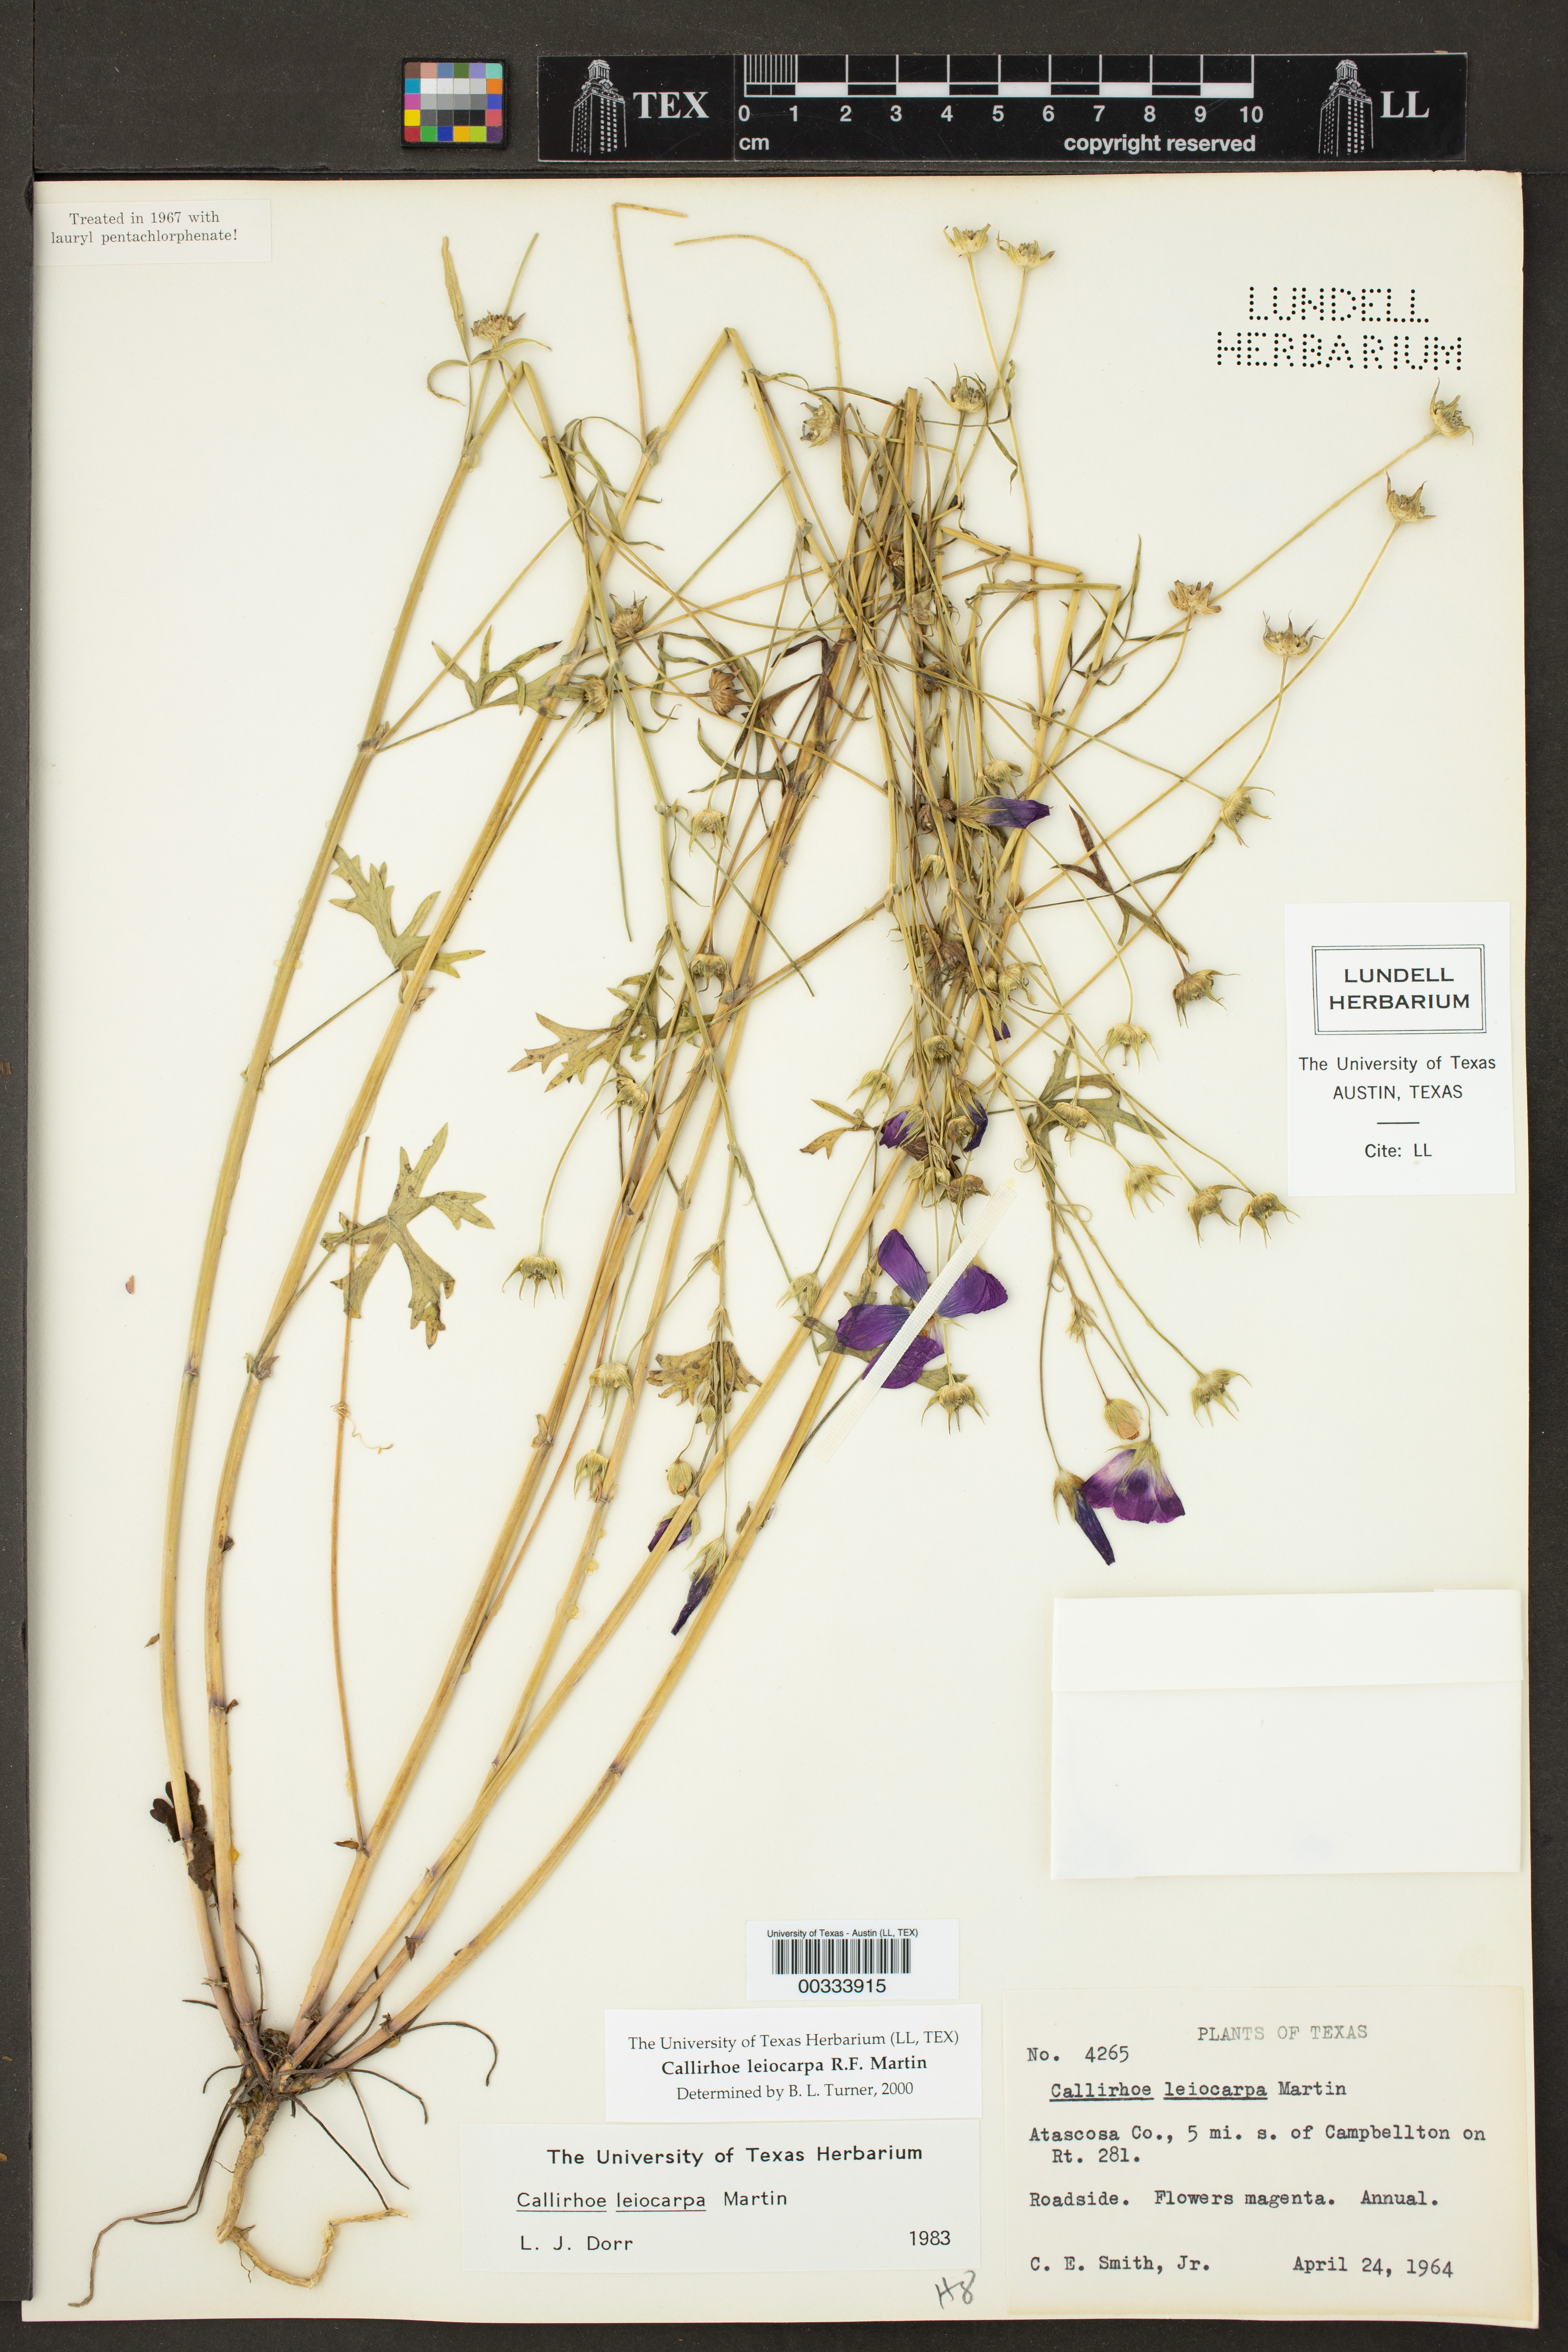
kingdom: Plantae
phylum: Tracheophyta
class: Magnoliopsida
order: Malvales
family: Malvaceae
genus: Callirhoe
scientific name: Callirhoe leiocarpa
